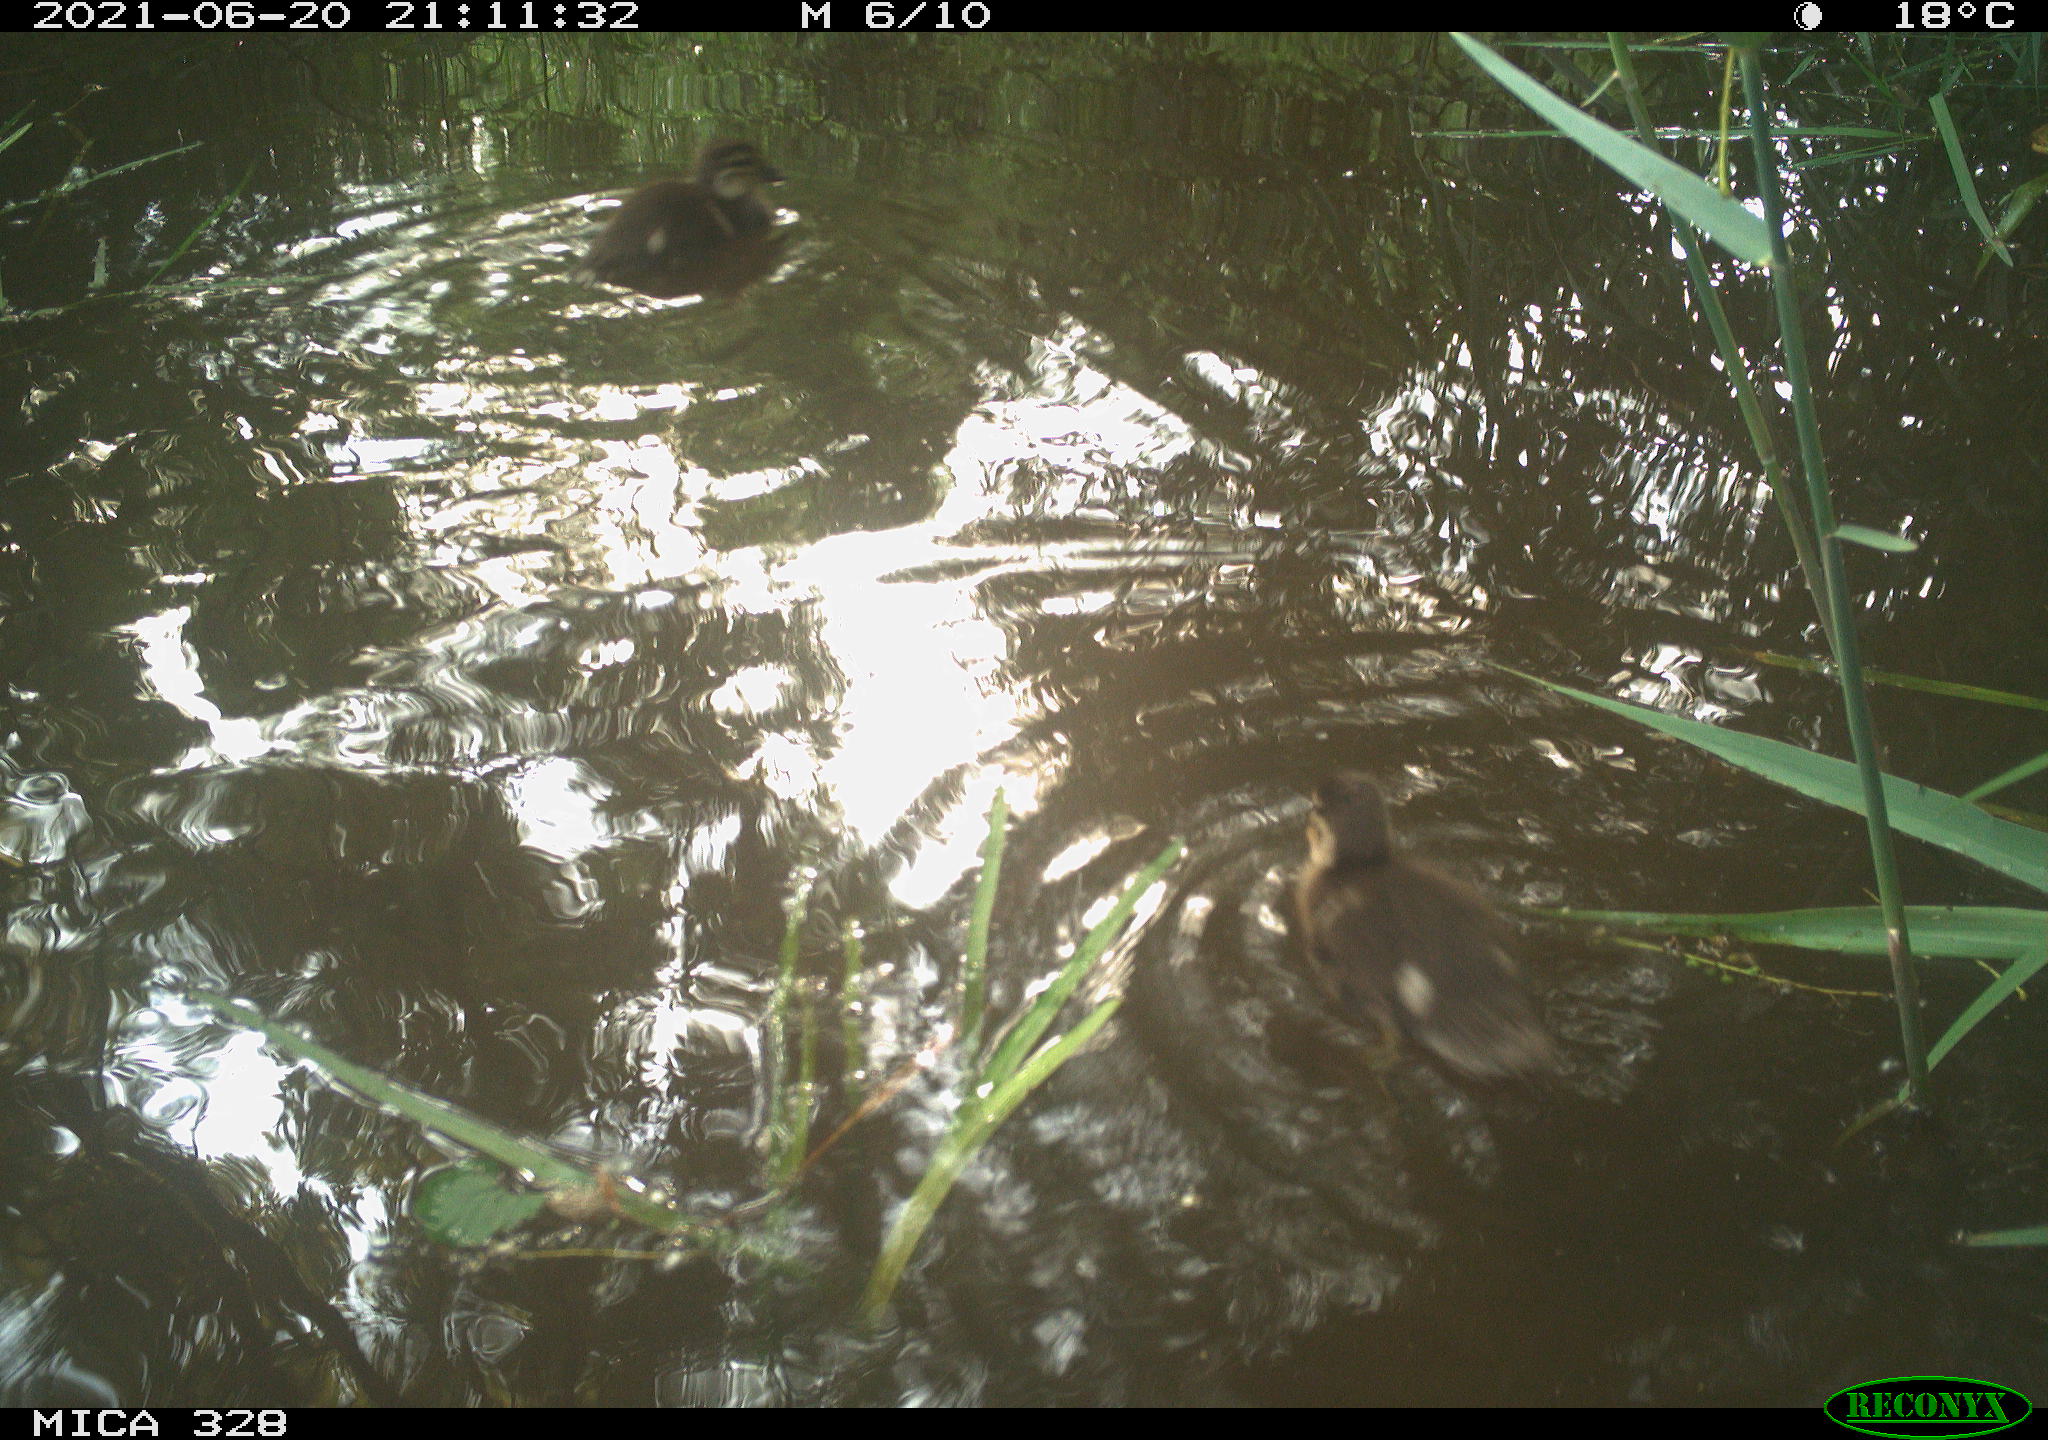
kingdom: Animalia
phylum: Chordata
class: Aves
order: Anseriformes
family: Anatidae
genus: Aix
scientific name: Aix galericulata
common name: Mandarin duck
